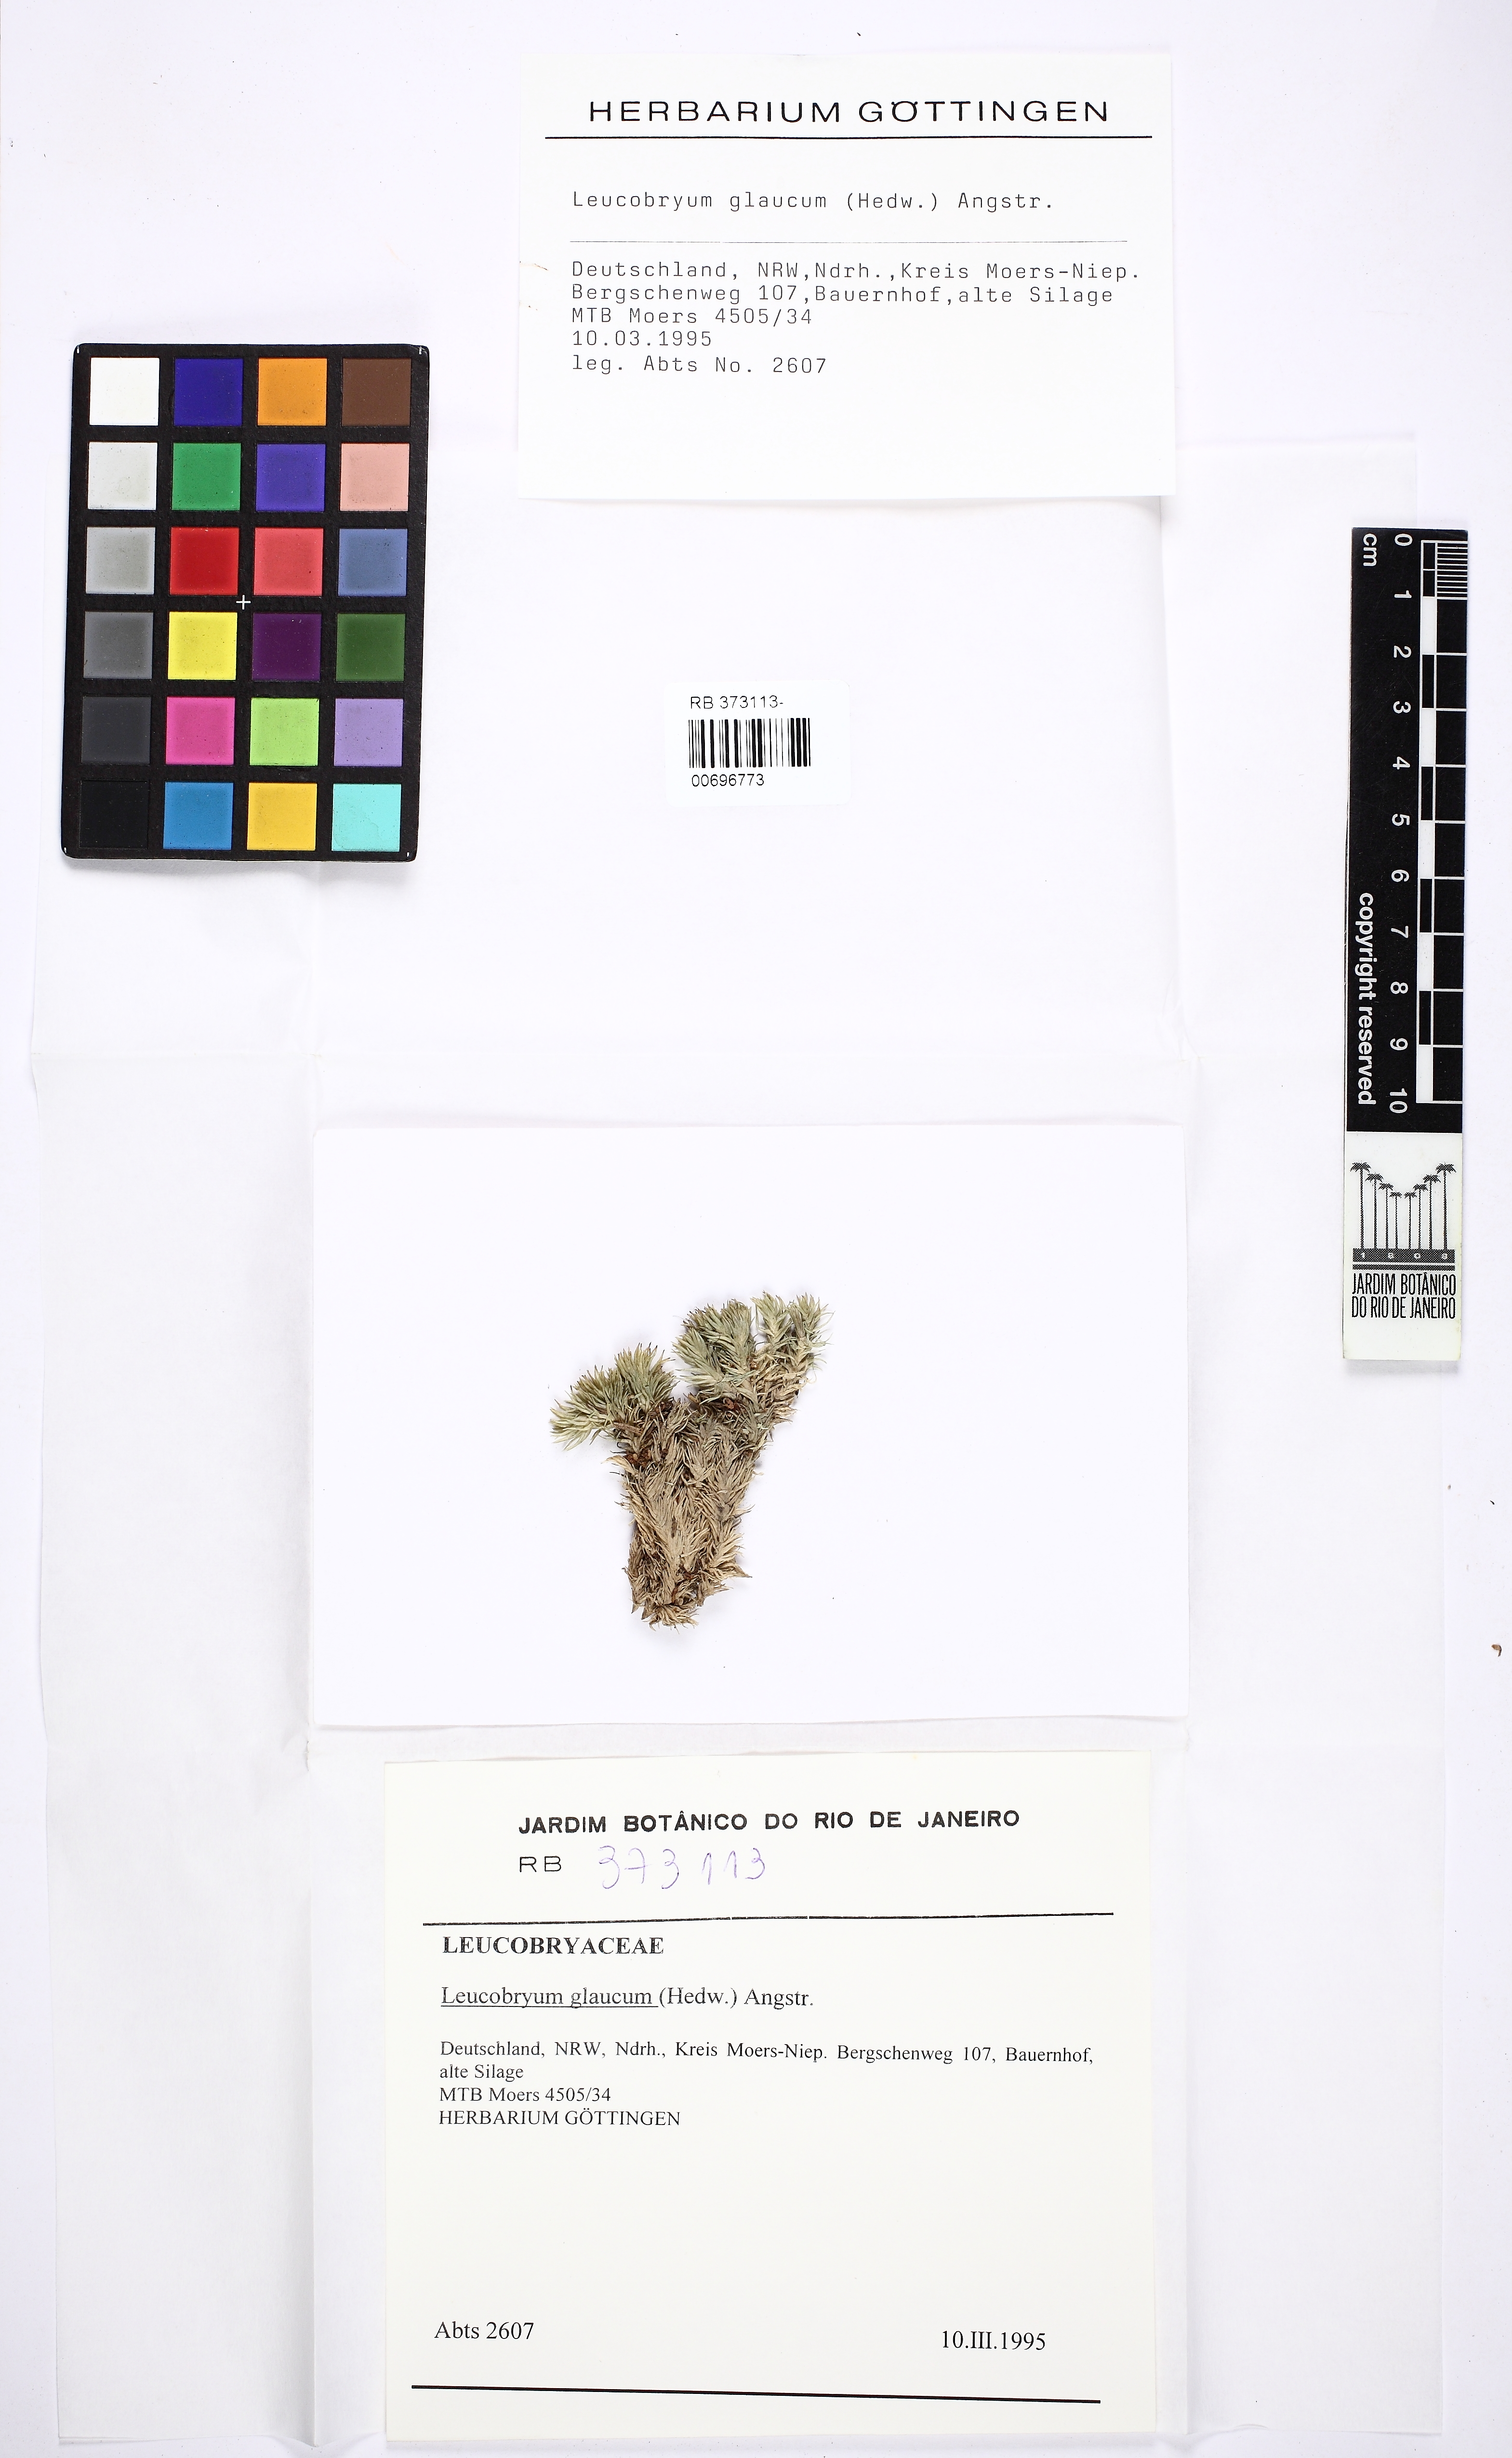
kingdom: Plantae
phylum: Bryophyta
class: Bryopsida
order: Dicranales
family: Leucobryaceae
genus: Leucobryum
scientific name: Leucobryum glaucum
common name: Large white-moss
